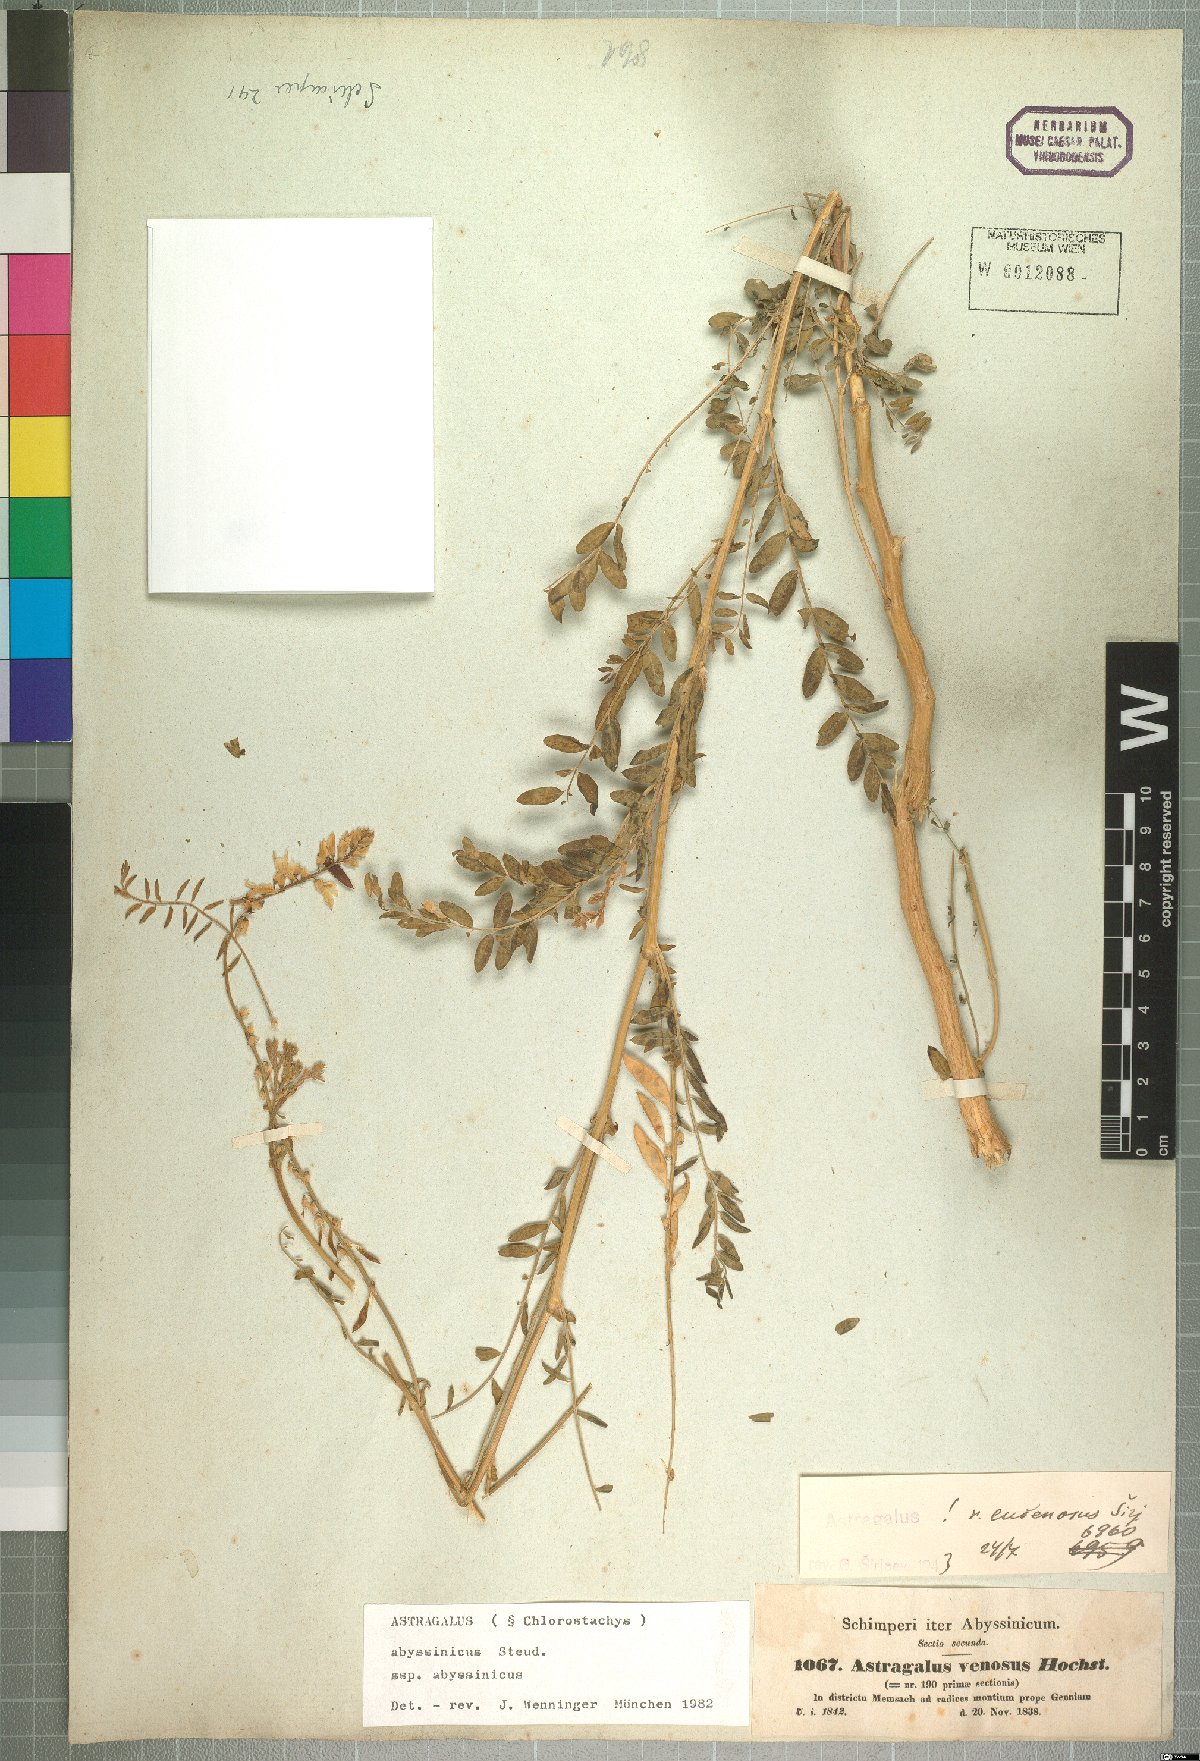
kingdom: Plantae
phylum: Tracheophyta
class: Magnoliopsida
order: Fabales
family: Fabaceae
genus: Astragalus
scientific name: Astragalus atropilosulus
